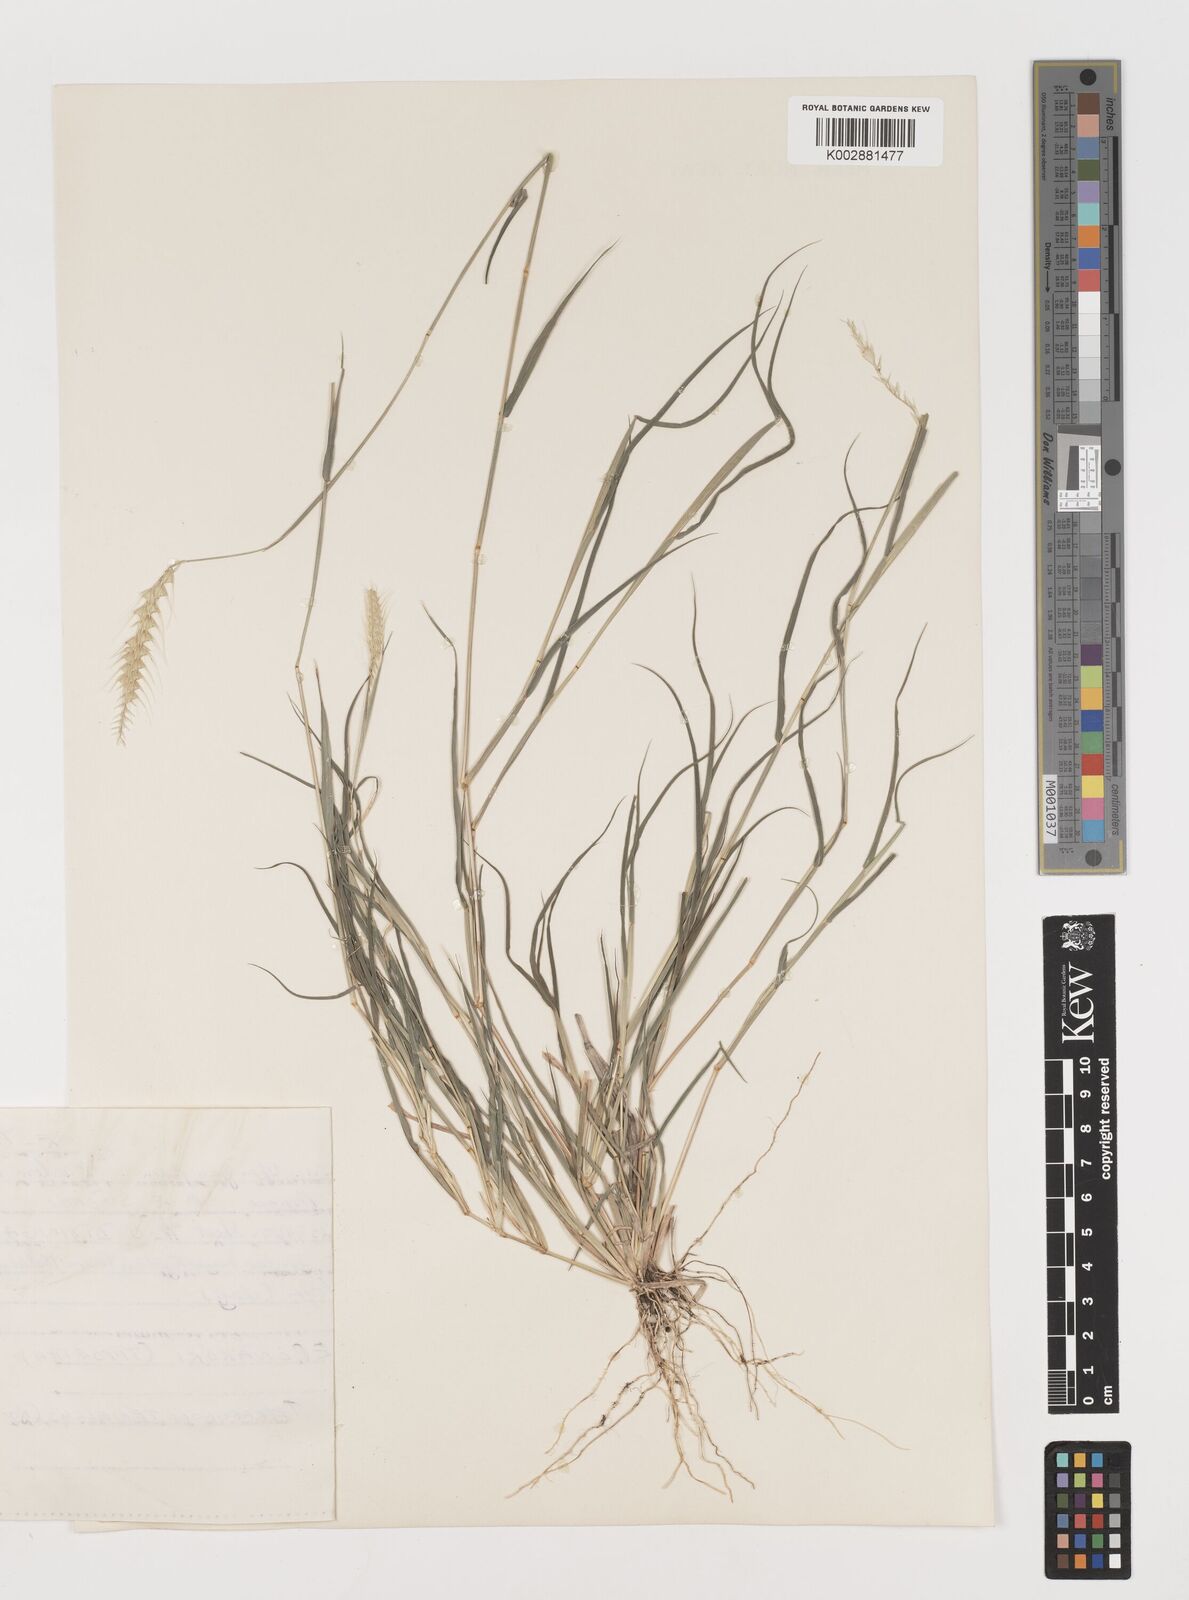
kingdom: Plantae
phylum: Tracheophyta
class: Liliopsida
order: Poales
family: Poaceae
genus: Tetrapogon
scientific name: Tetrapogon tenellus
